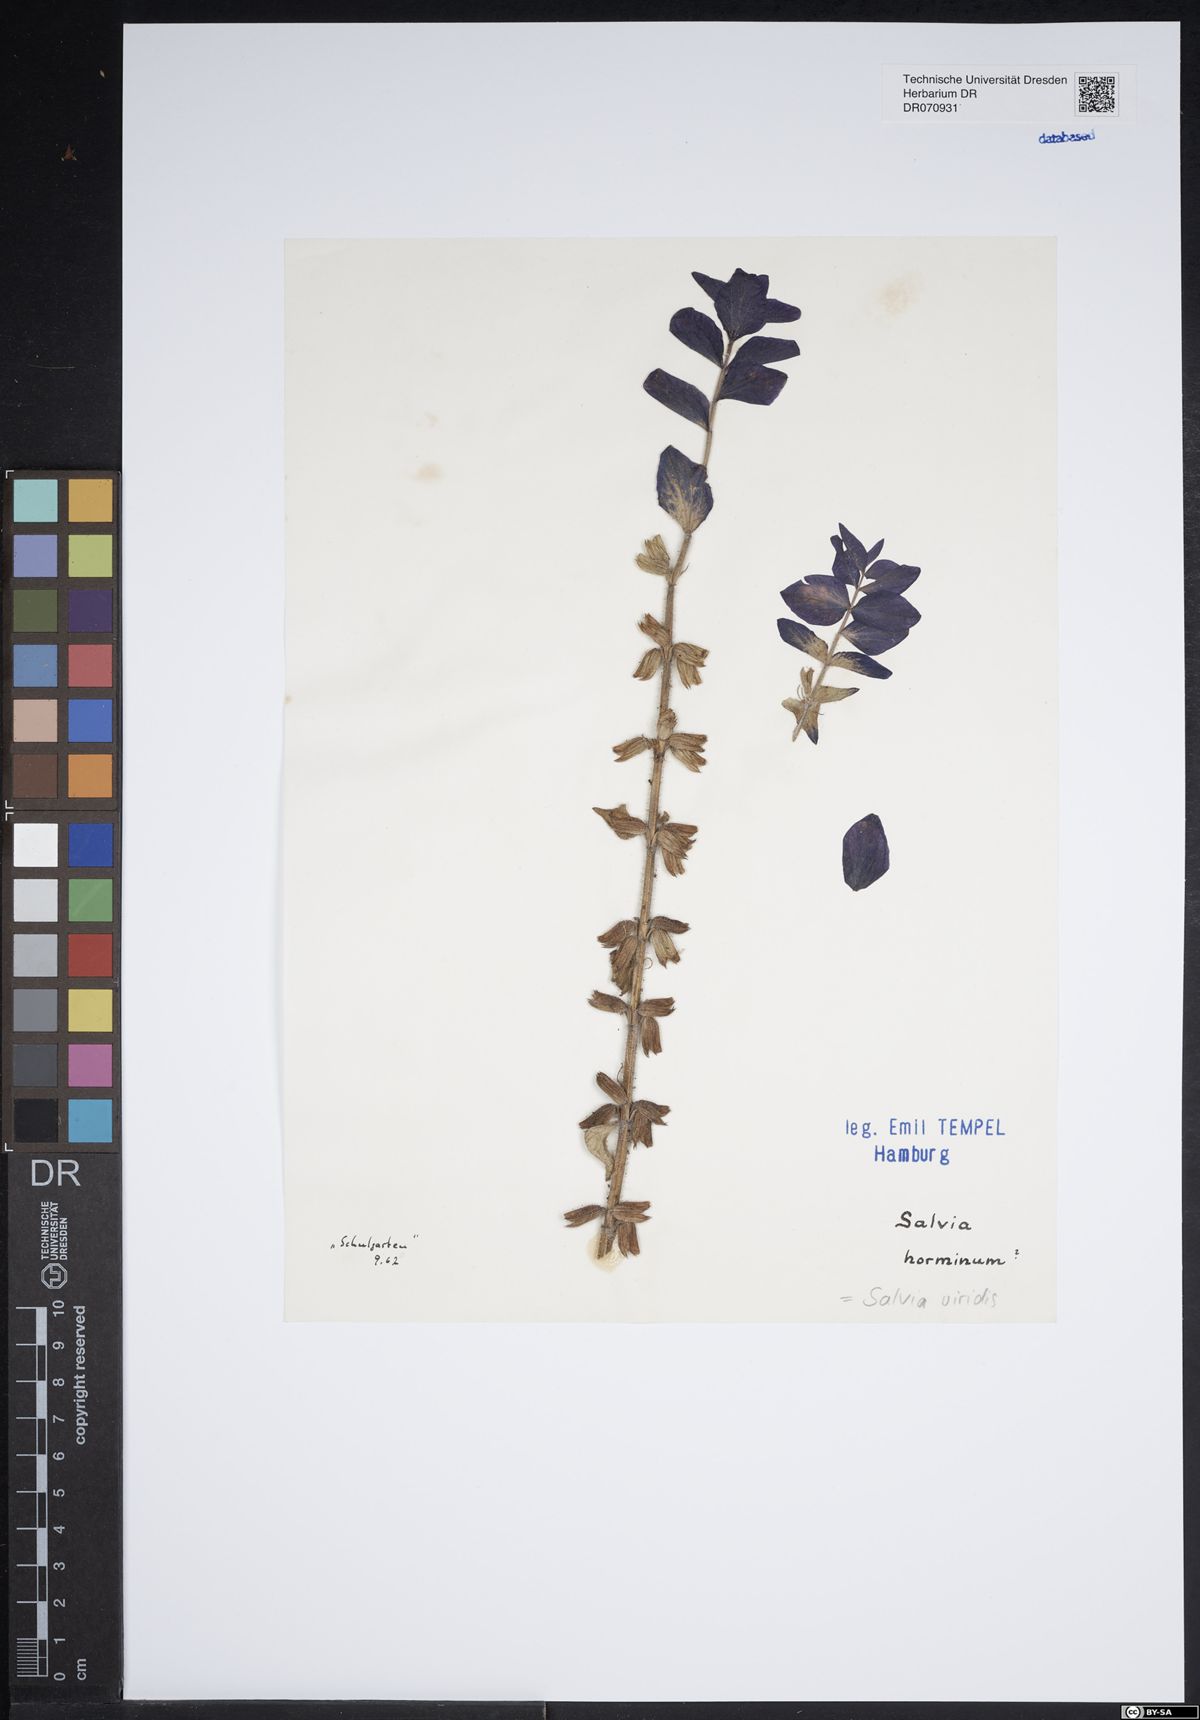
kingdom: Plantae
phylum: Tracheophyta
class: Magnoliopsida
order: Lamiales
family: Lamiaceae
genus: Salvia
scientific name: Salvia viridis
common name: Annual clary
